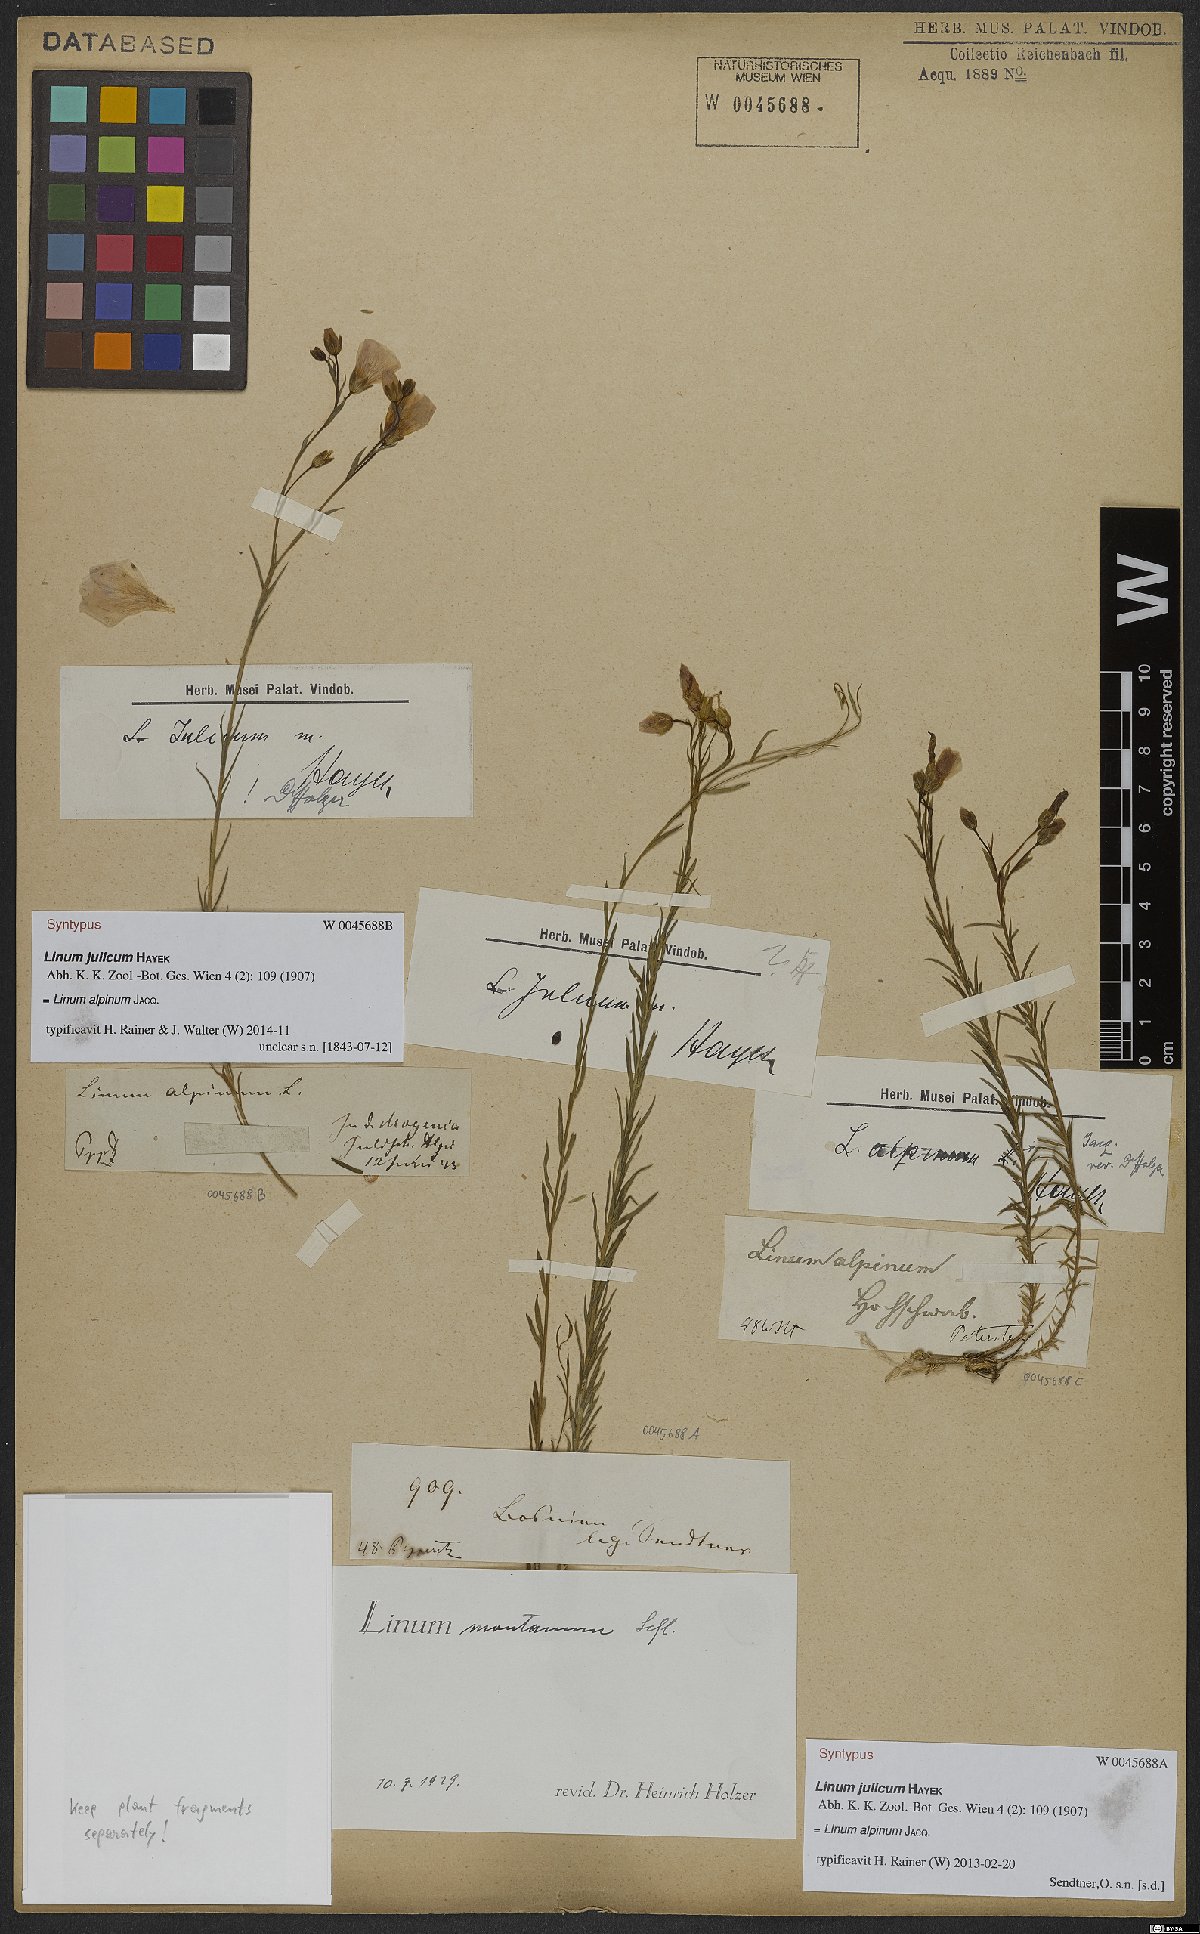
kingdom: Plantae
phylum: Tracheophyta
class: Magnoliopsida
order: Malpighiales
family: Linaceae
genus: Linum
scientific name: Linum alpinum
